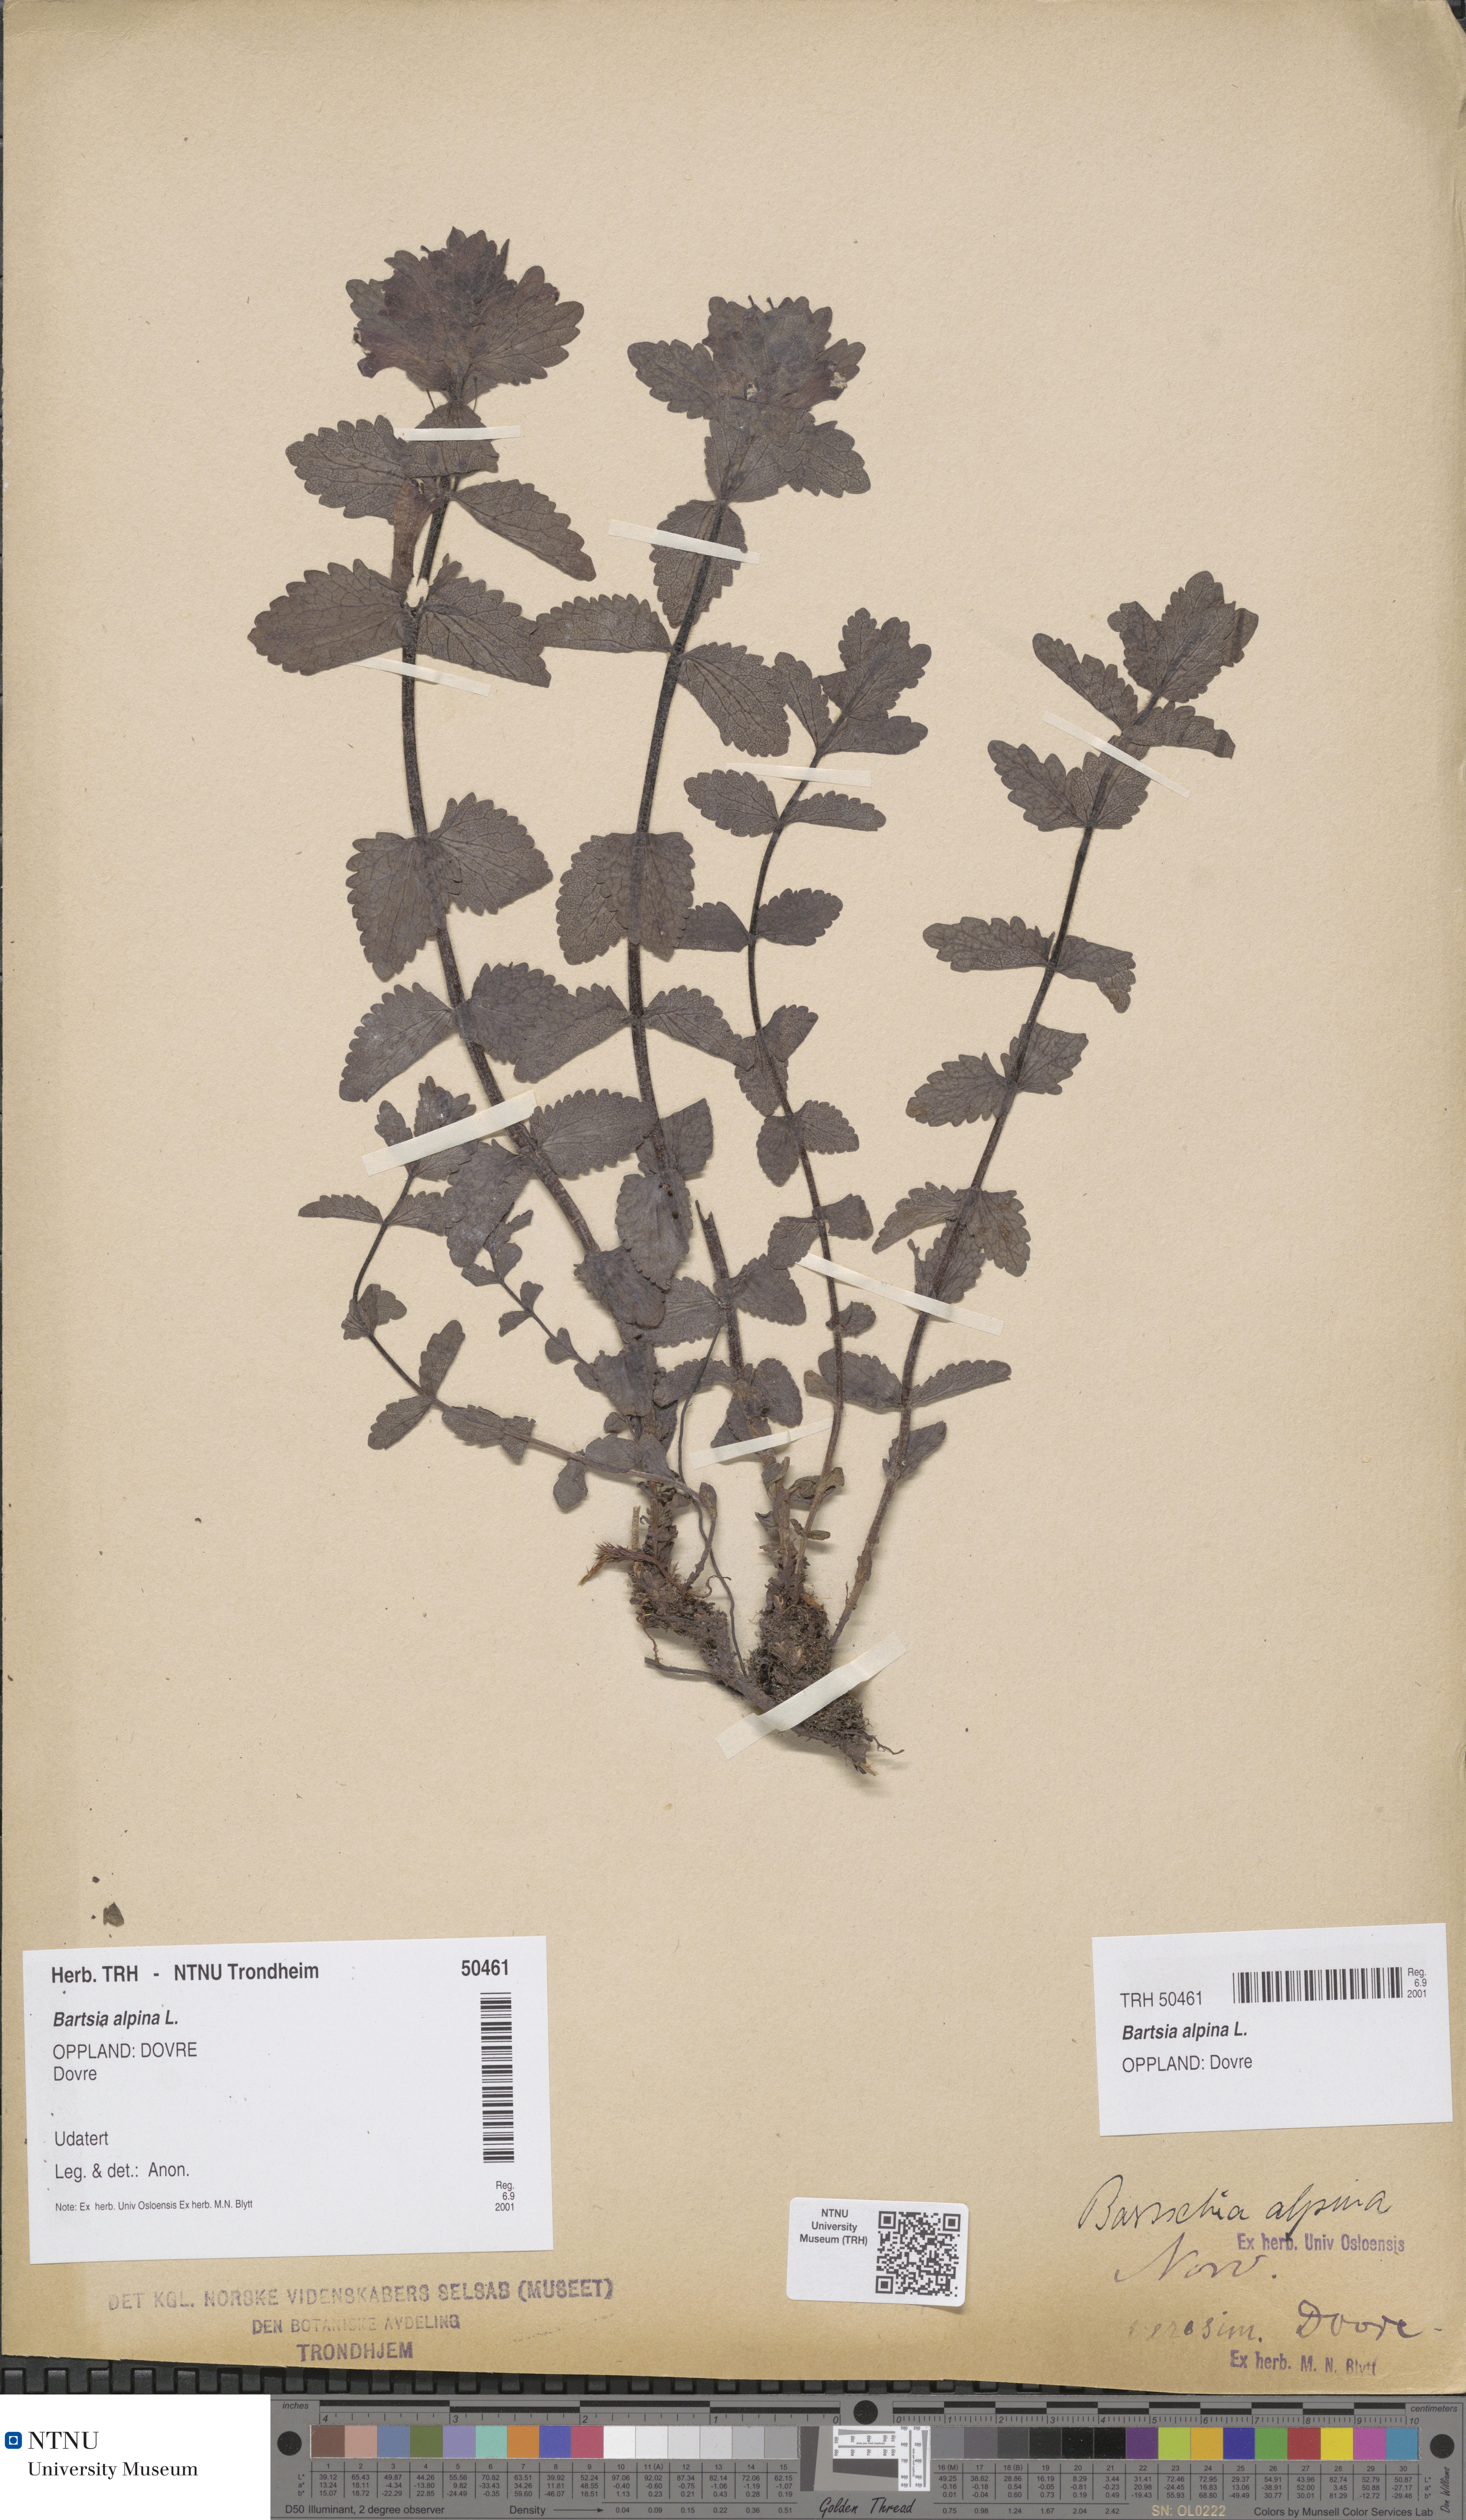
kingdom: Plantae
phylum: Tracheophyta
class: Magnoliopsida
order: Lamiales
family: Orobanchaceae
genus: Bartsia
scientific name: Bartsia alpina
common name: Alpine bartsia
